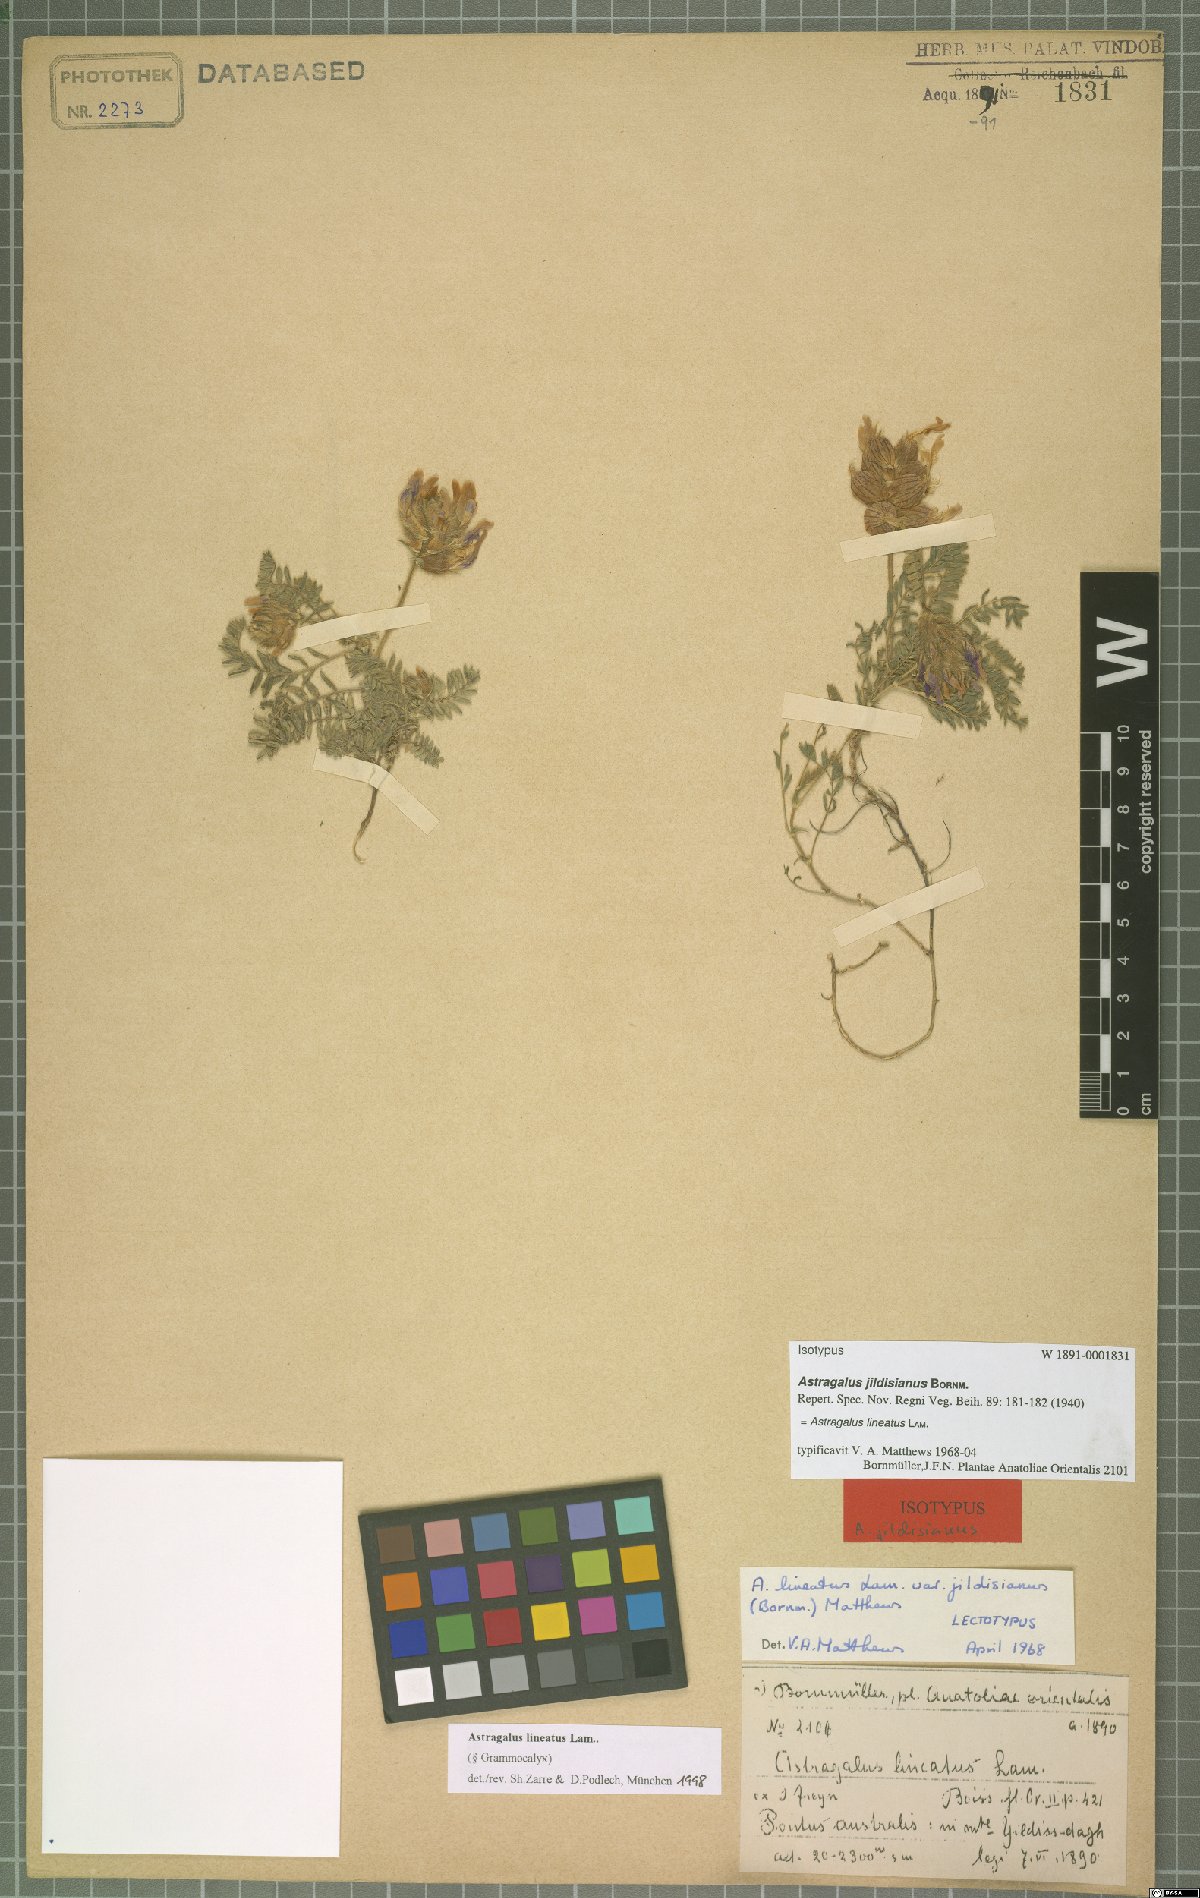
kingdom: Plantae
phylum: Tracheophyta
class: Magnoliopsida
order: Fabales
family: Fabaceae
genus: Astragalus
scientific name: Astragalus lineatus
